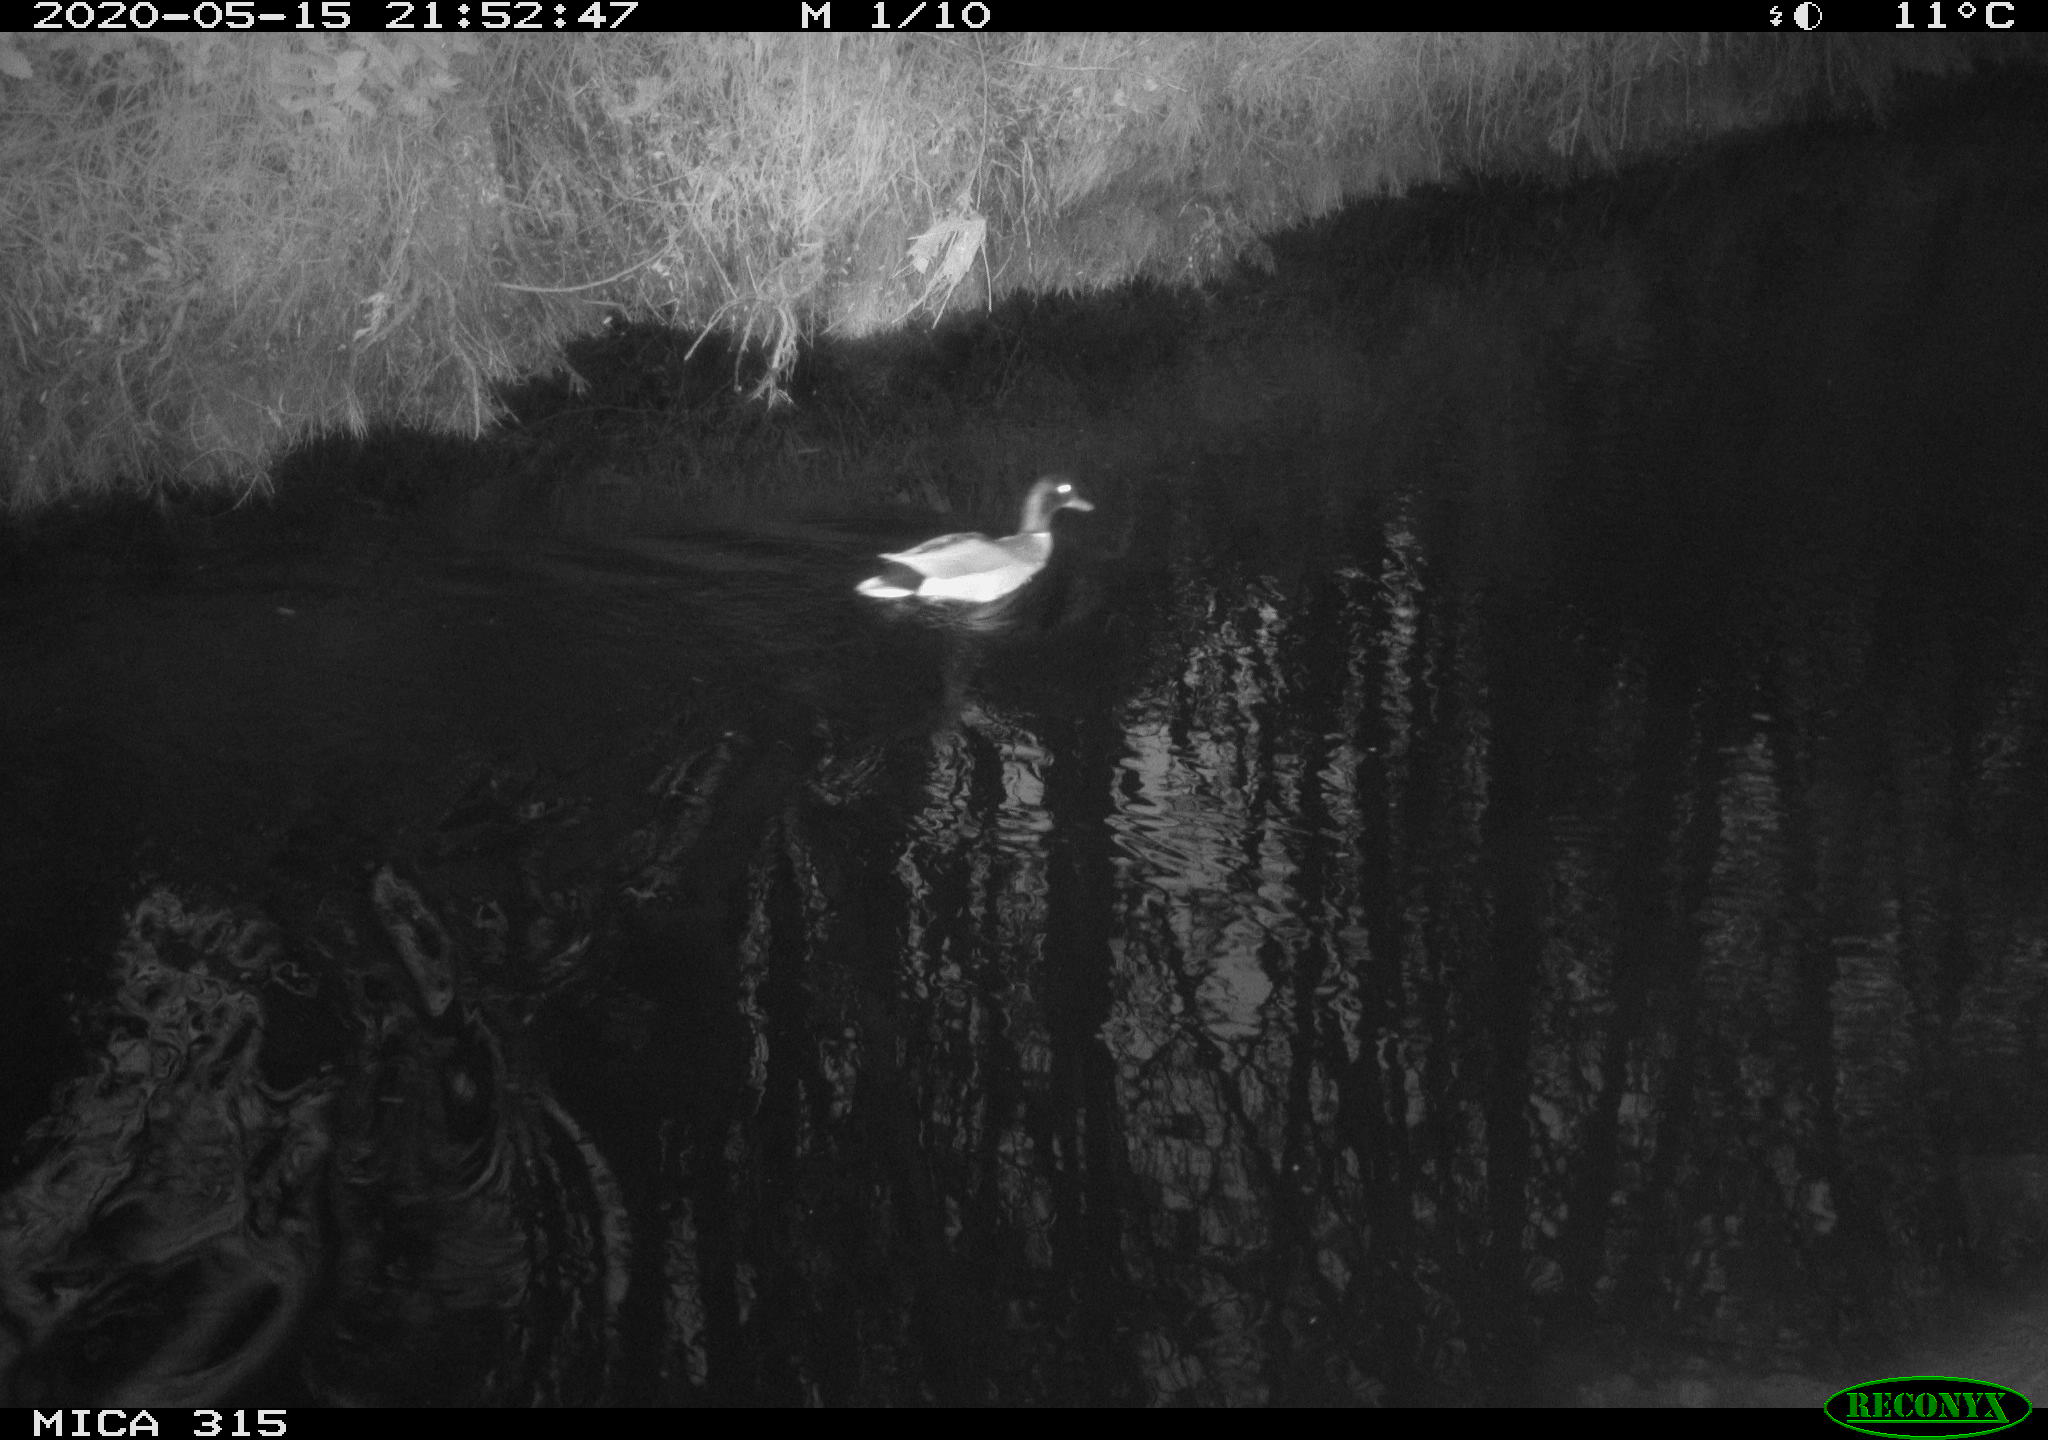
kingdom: Animalia
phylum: Chordata
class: Aves
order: Anseriformes
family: Anatidae
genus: Anas
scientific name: Anas platyrhynchos
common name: Mallard
